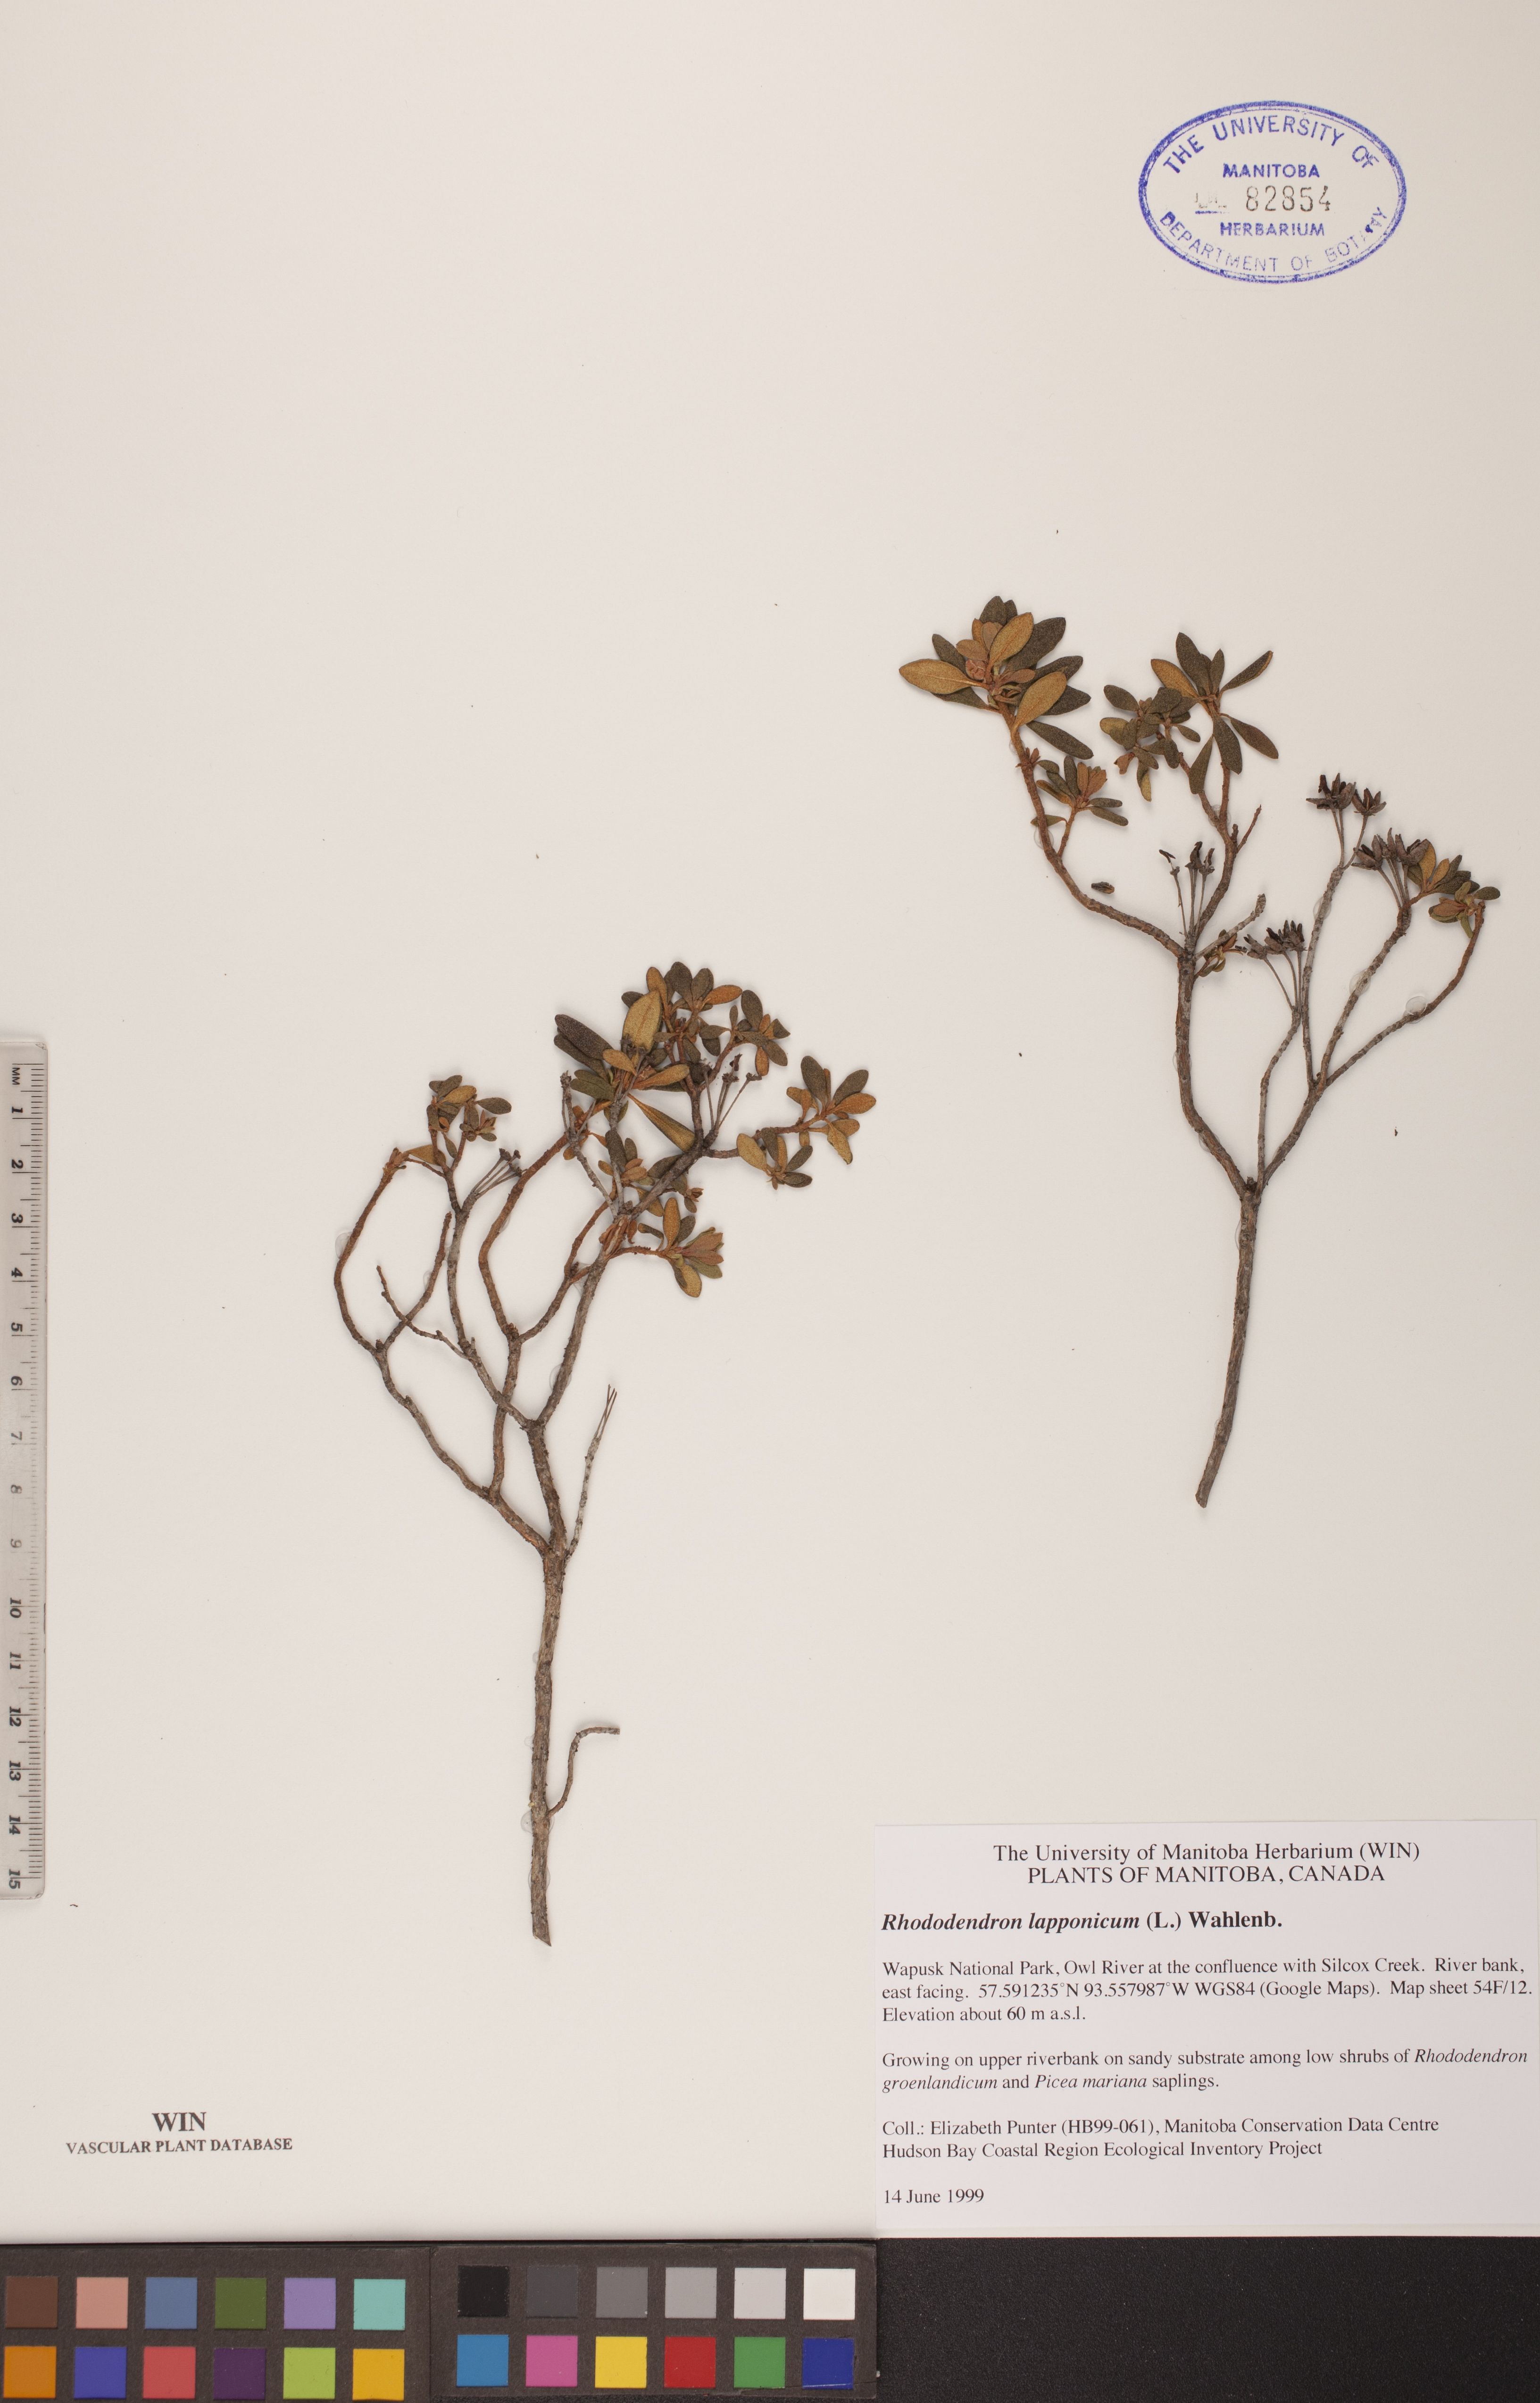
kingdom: Plantae
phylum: Tracheophyta
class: Magnoliopsida
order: Ericales
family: Ericaceae
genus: Rhododendron
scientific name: Rhododendron lapponicum
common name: Lapland rhododendron
